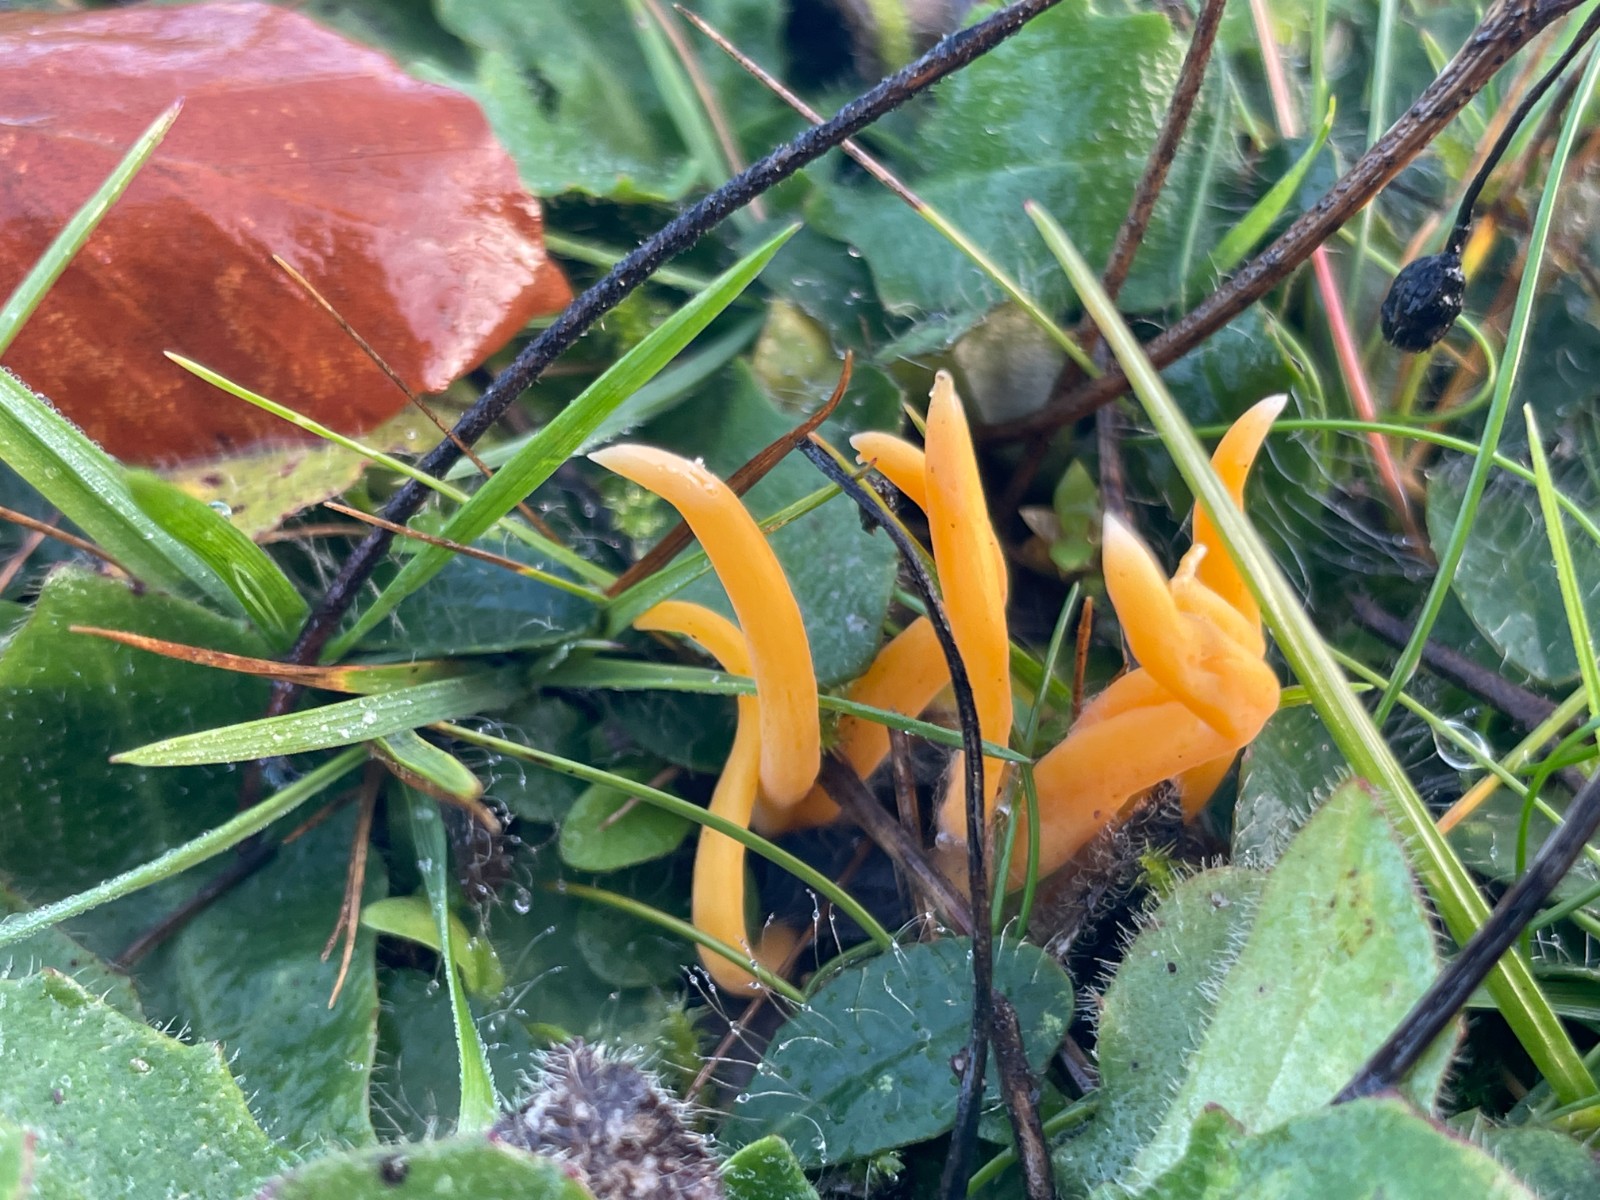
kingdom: Fungi
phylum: Basidiomycota
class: Agaricomycetes
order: Agaricales
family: Clavariaceae
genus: Clavulinopsis
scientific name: Clavulinopsis
